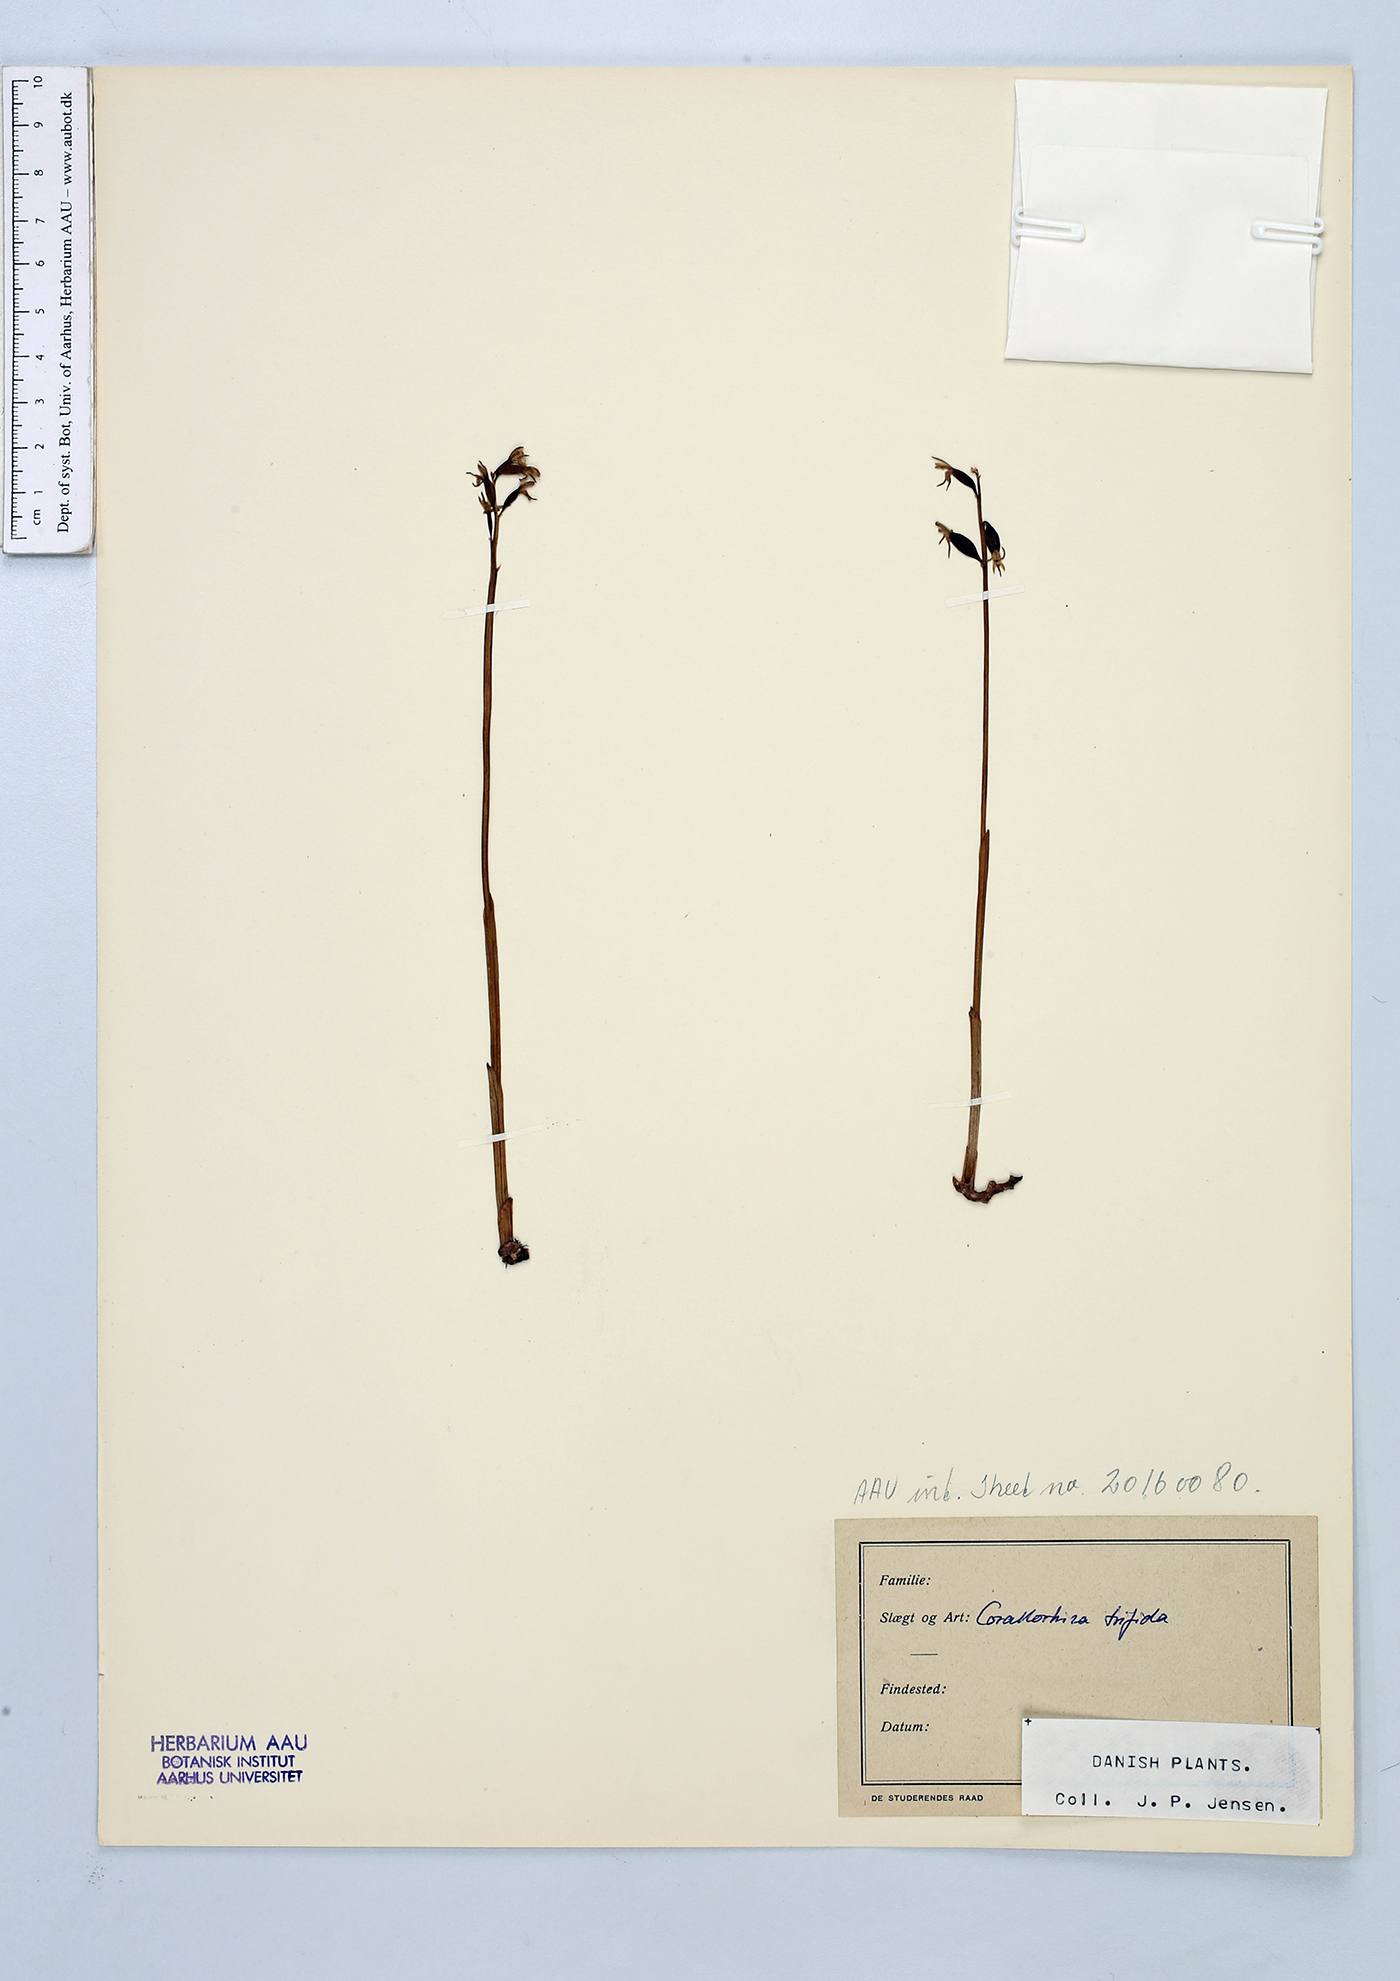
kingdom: Plantae
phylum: Tracheophyta
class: Liliopsida
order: Asparagales
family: Orchidaceae
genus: Corallorhiza
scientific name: Corallorhiza trifida
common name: Yellow coralroot
